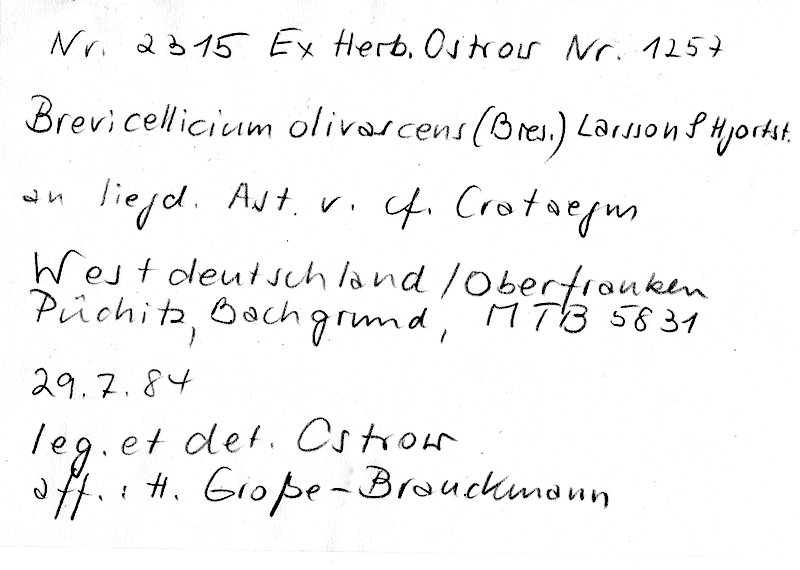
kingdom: Plantae
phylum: Tracheophyta
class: Magnoliopsida
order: Rosales
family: Rosaceae
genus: Crataegus
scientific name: Crataegus
